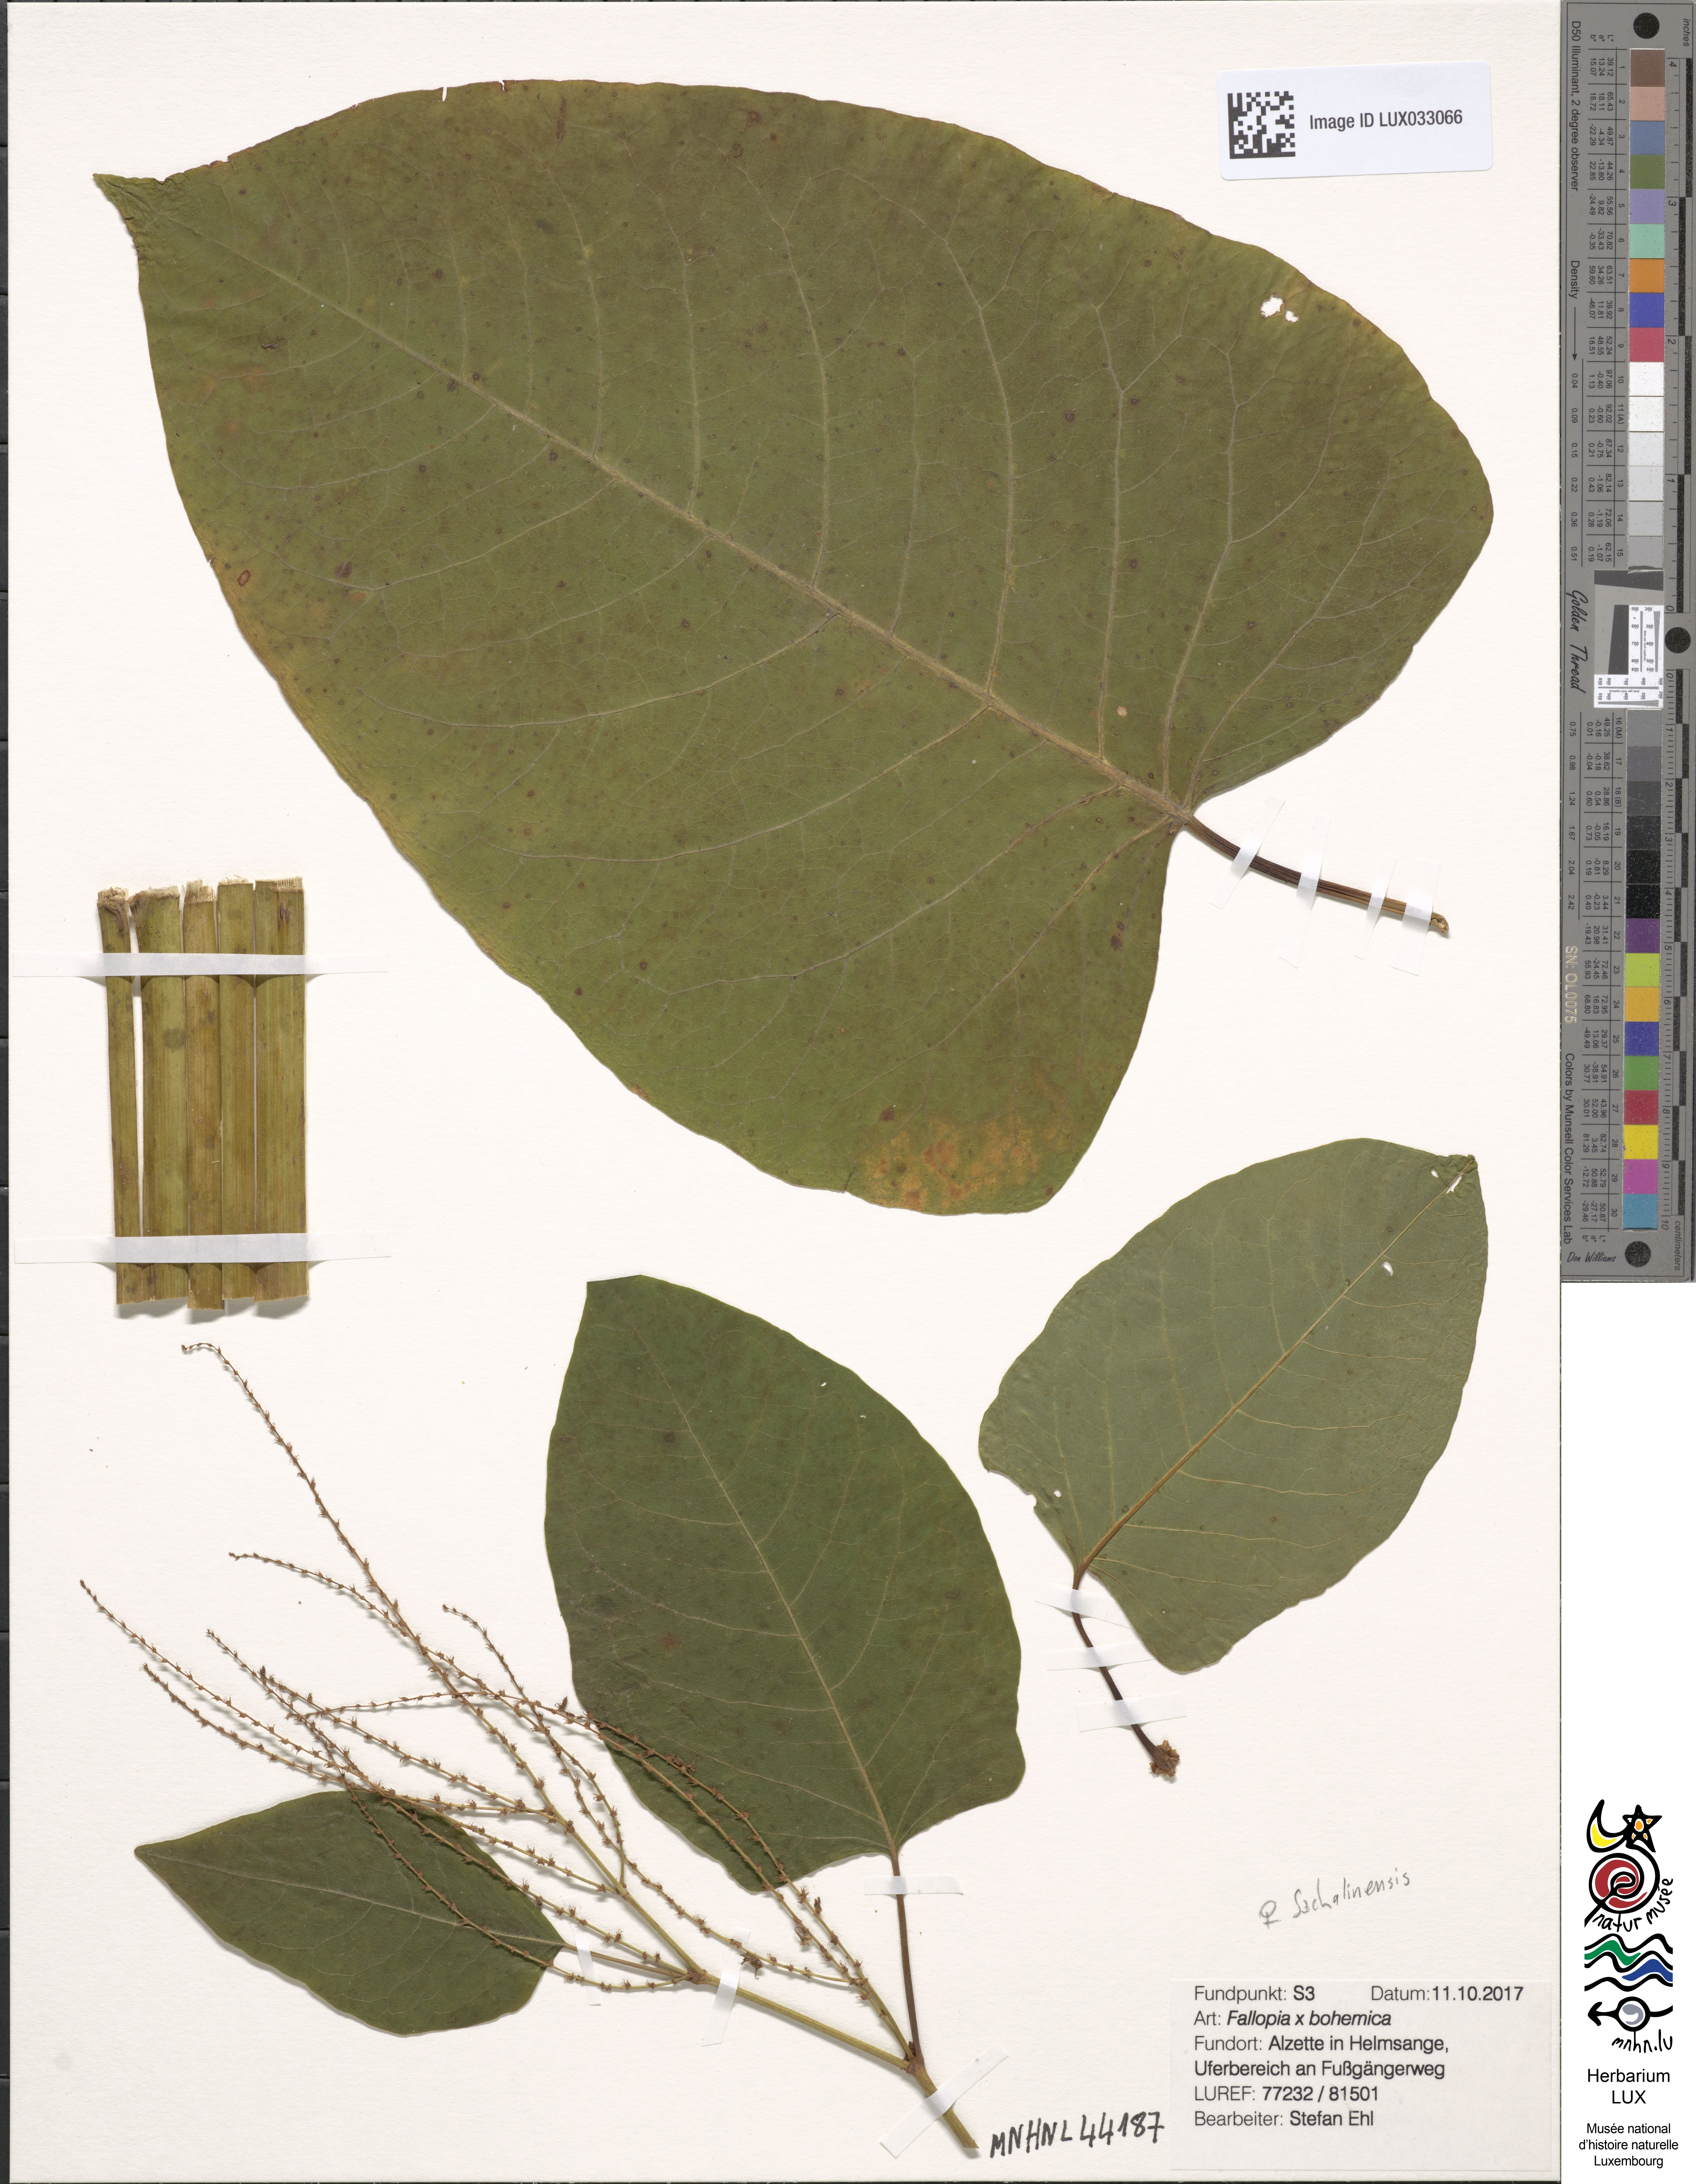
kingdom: Plantae
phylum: Tracheophyta
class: Magnoliopsida
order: Caryophyllales
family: Polygonaceae
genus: Reynoutria
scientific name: Reynoutria sachalinensis
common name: Giant knotweed
